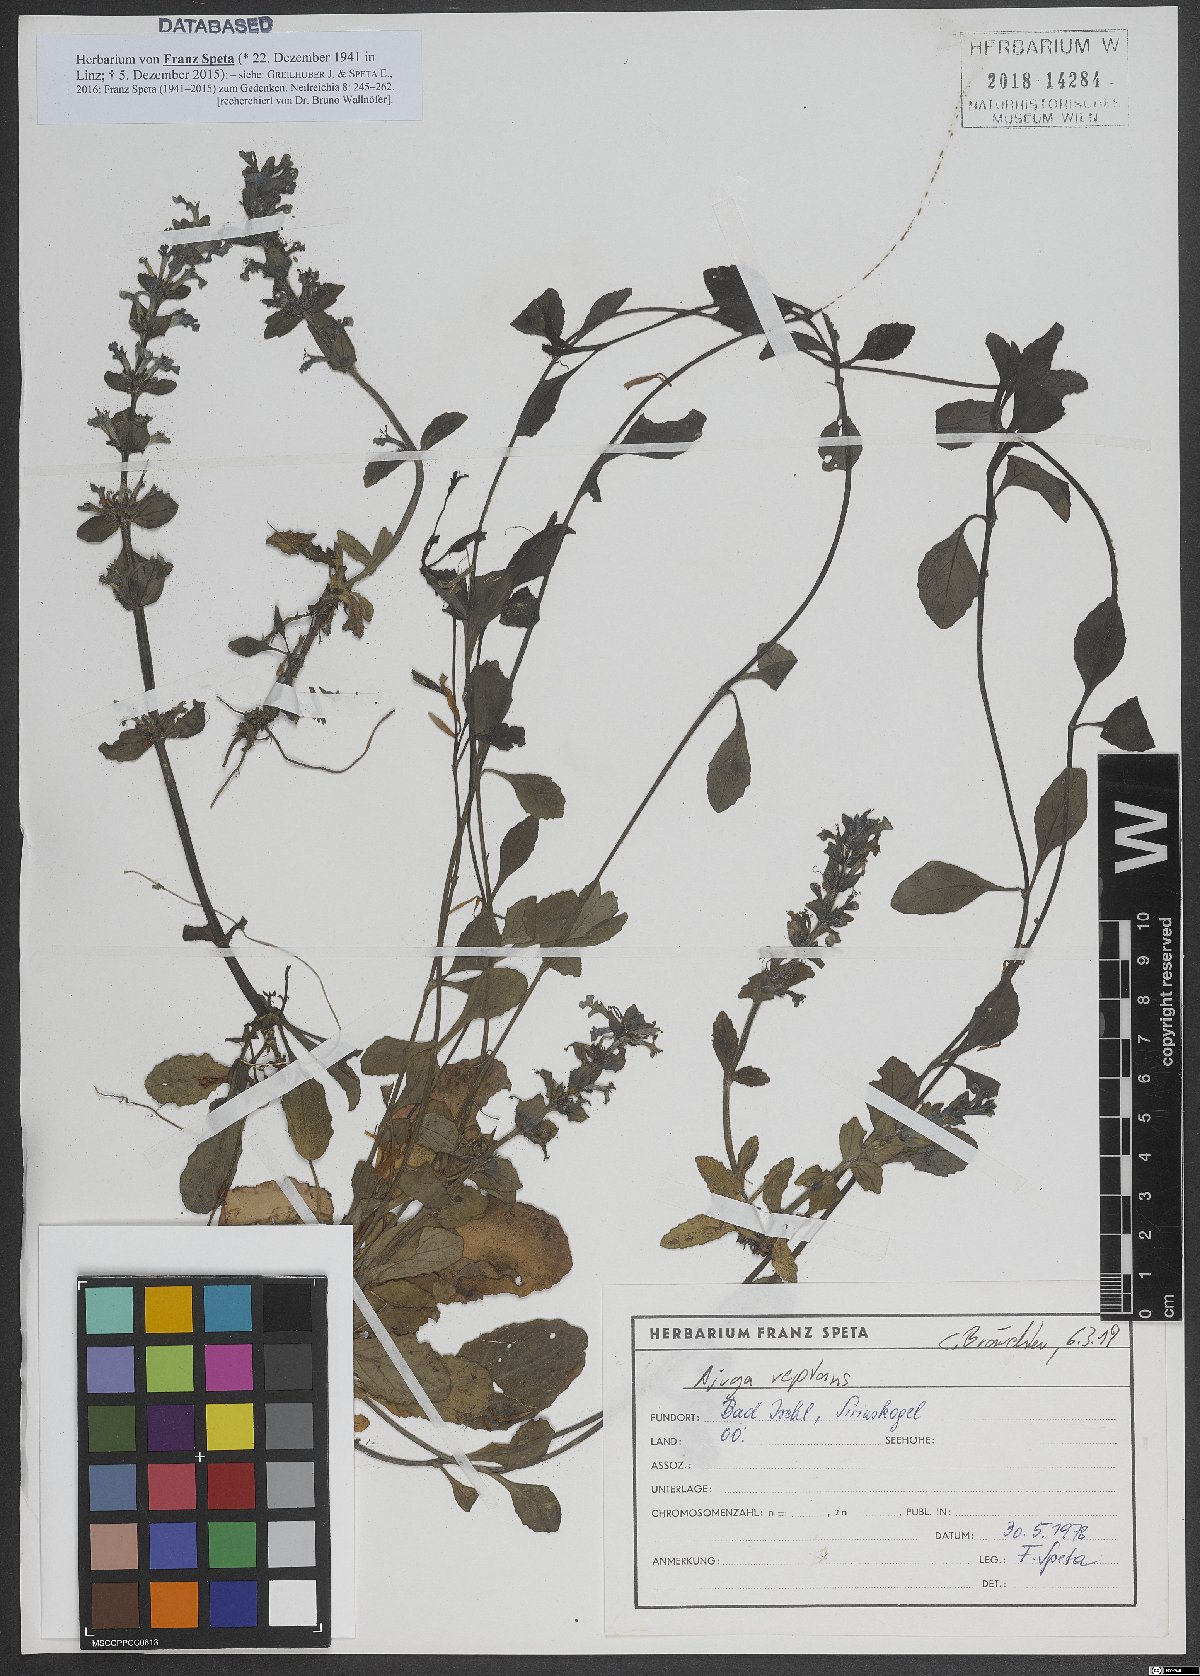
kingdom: Plantae
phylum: Tracheophyta
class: Magnoliopsida
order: Lamiales
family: Lamiaceae
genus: Ajuga
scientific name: Ajuga reptans
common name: Bugle
